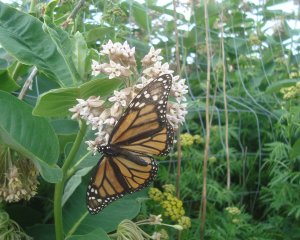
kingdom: Animalia
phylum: Arthropoda
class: Insecta
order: Lepidoptera
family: Nymphalidae
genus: Danaus
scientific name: Danaus plexippus
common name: Monarch
